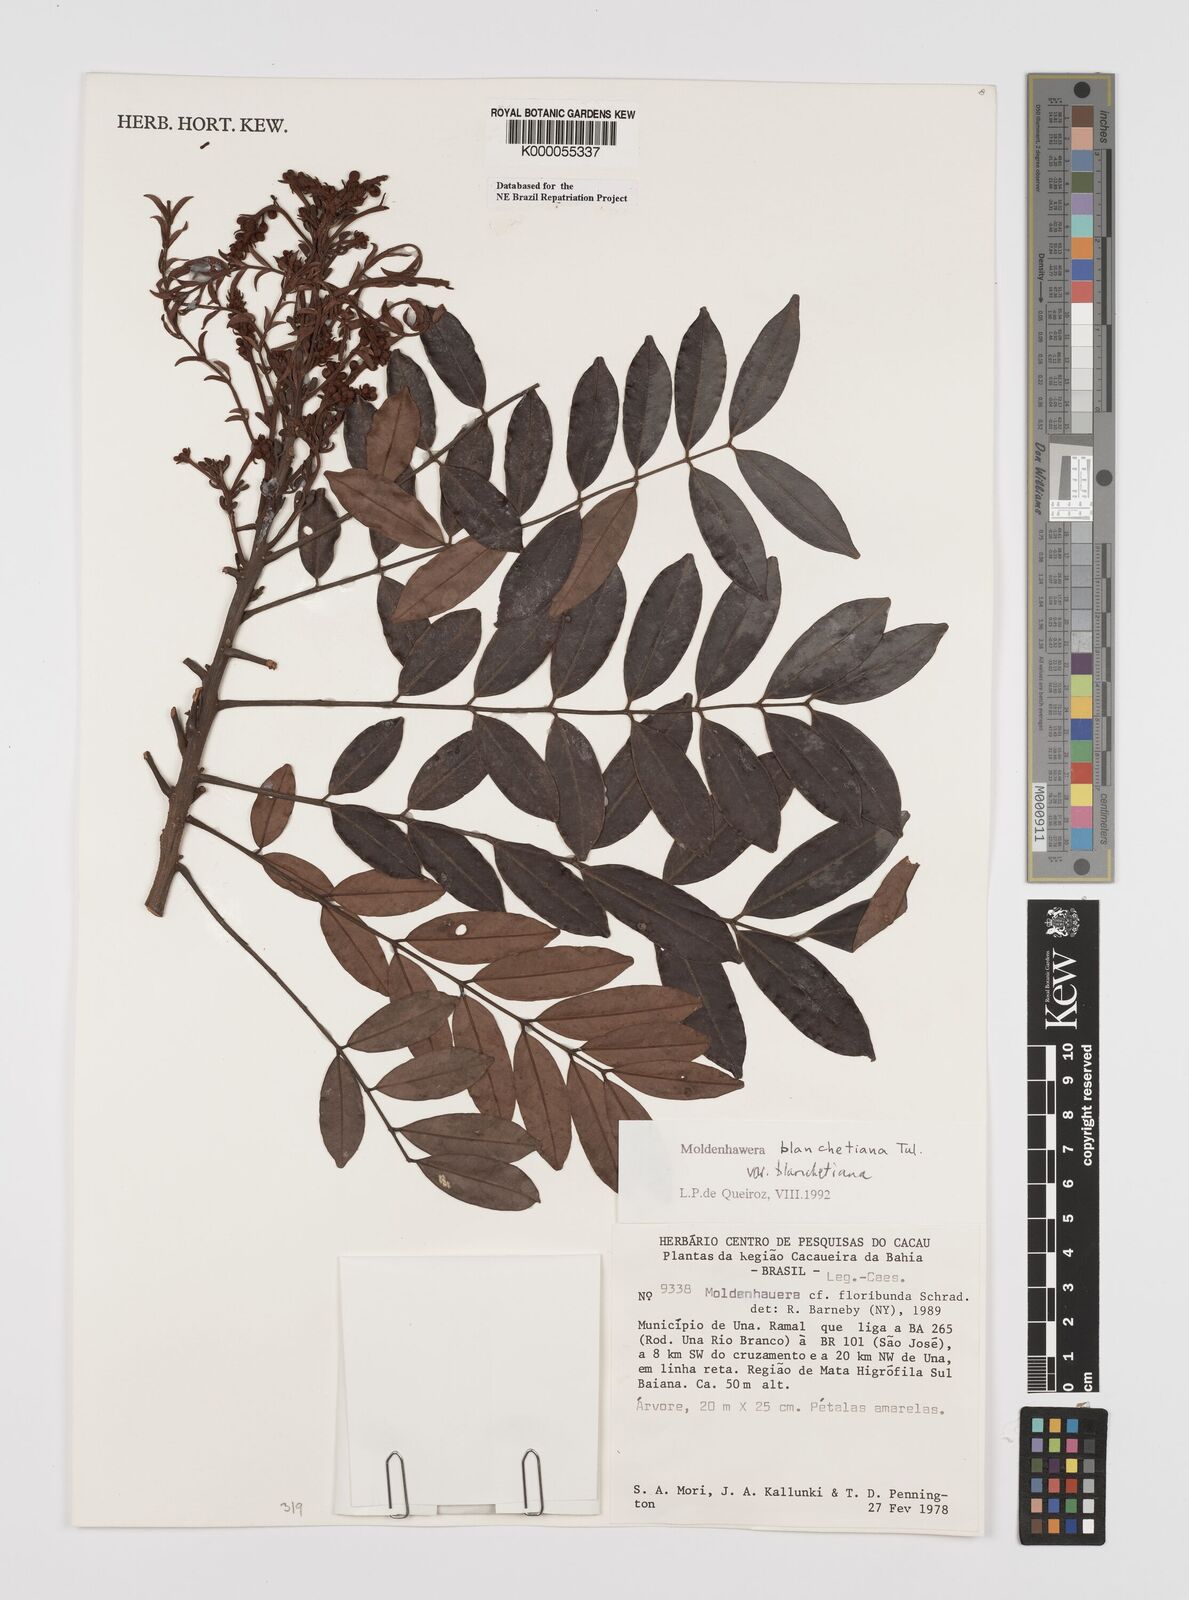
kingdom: Plantae
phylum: Tracheophyta
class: Magnoliopsida
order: Fabales
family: Fabaceae
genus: Moldenhawera
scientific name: Moldenhawera blanchetiana
